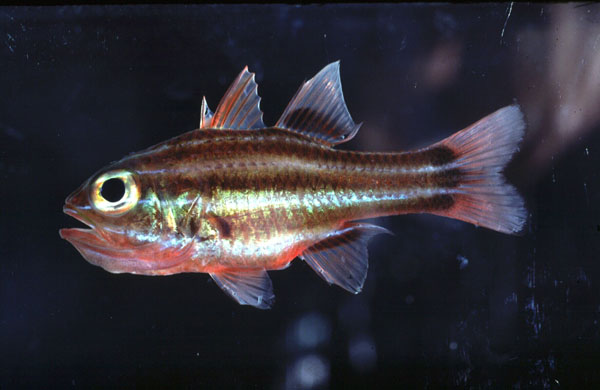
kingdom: Animalia
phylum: Chordata
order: Perciformes
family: Apogonidae
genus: Ostorhinchus
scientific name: Ostorhinchus nigrofasciatus
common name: Blackstripe cardinalfish
